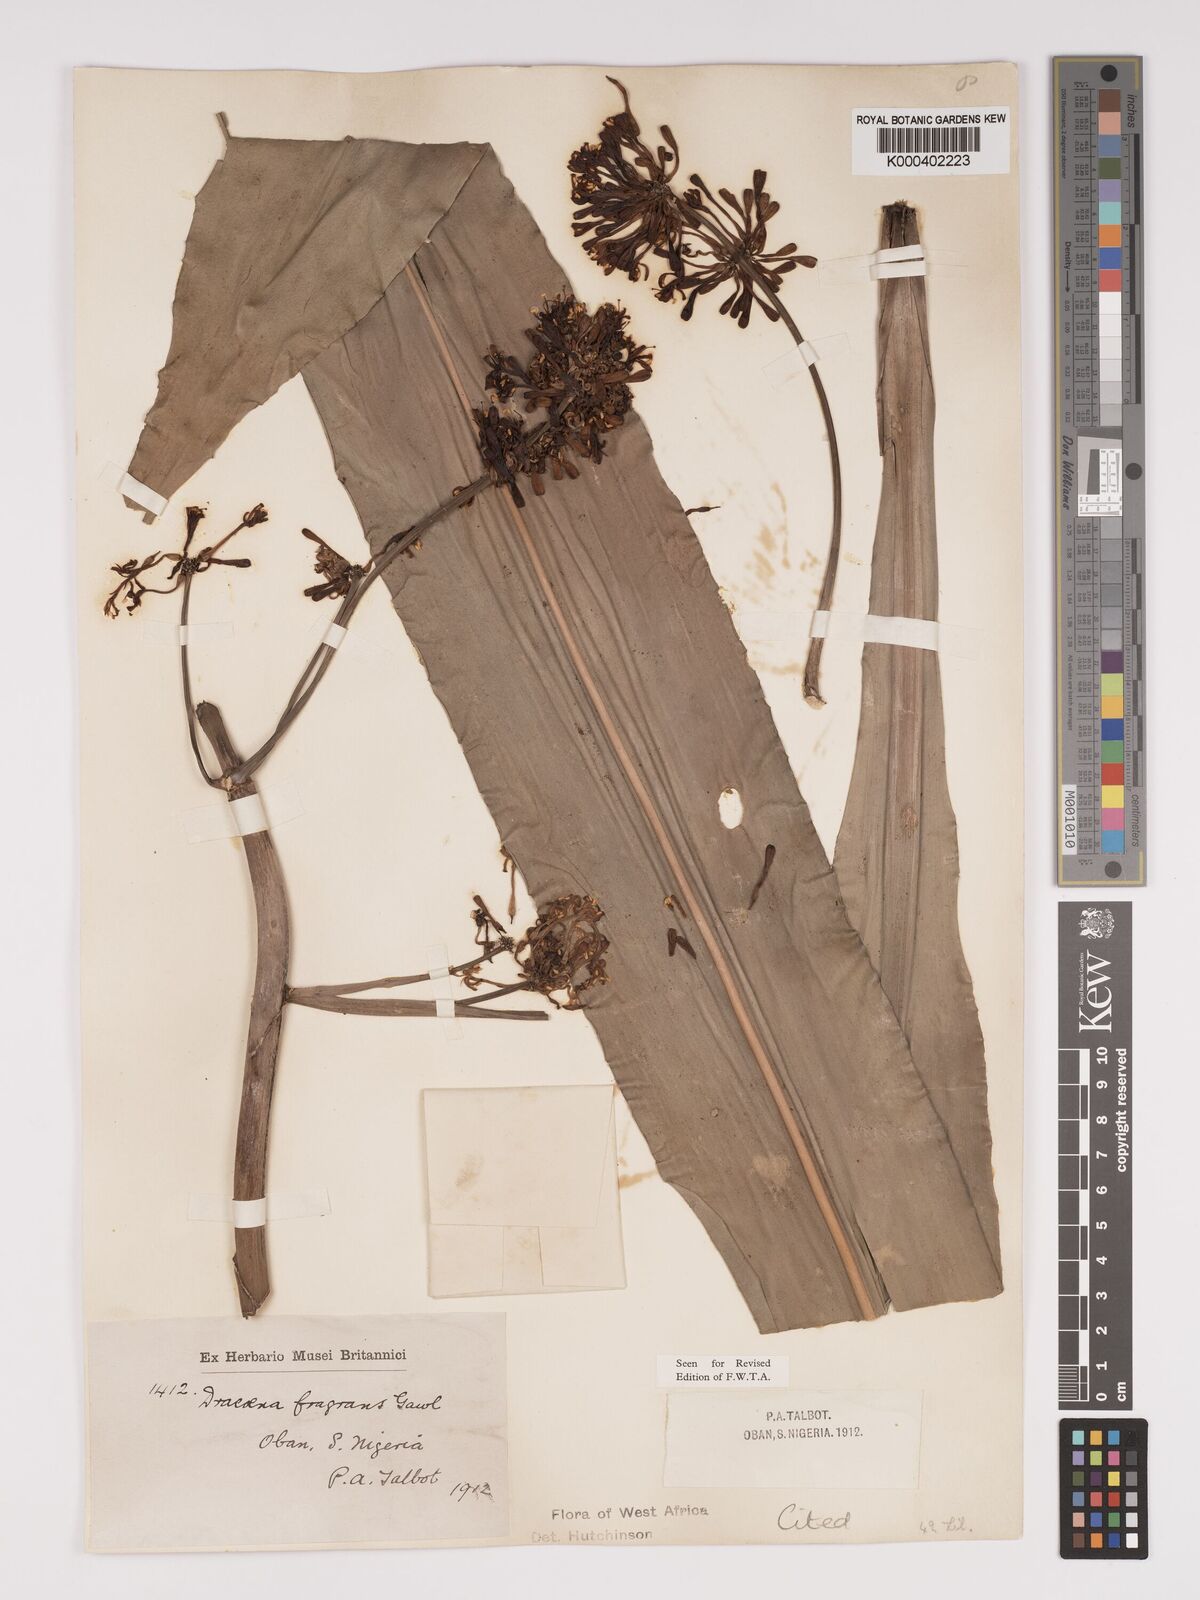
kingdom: Plantae
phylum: Tracheophyta
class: Liliopsida
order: Asparagales
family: Asparagaceae
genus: Dracaena
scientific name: Dracaena fragrans
